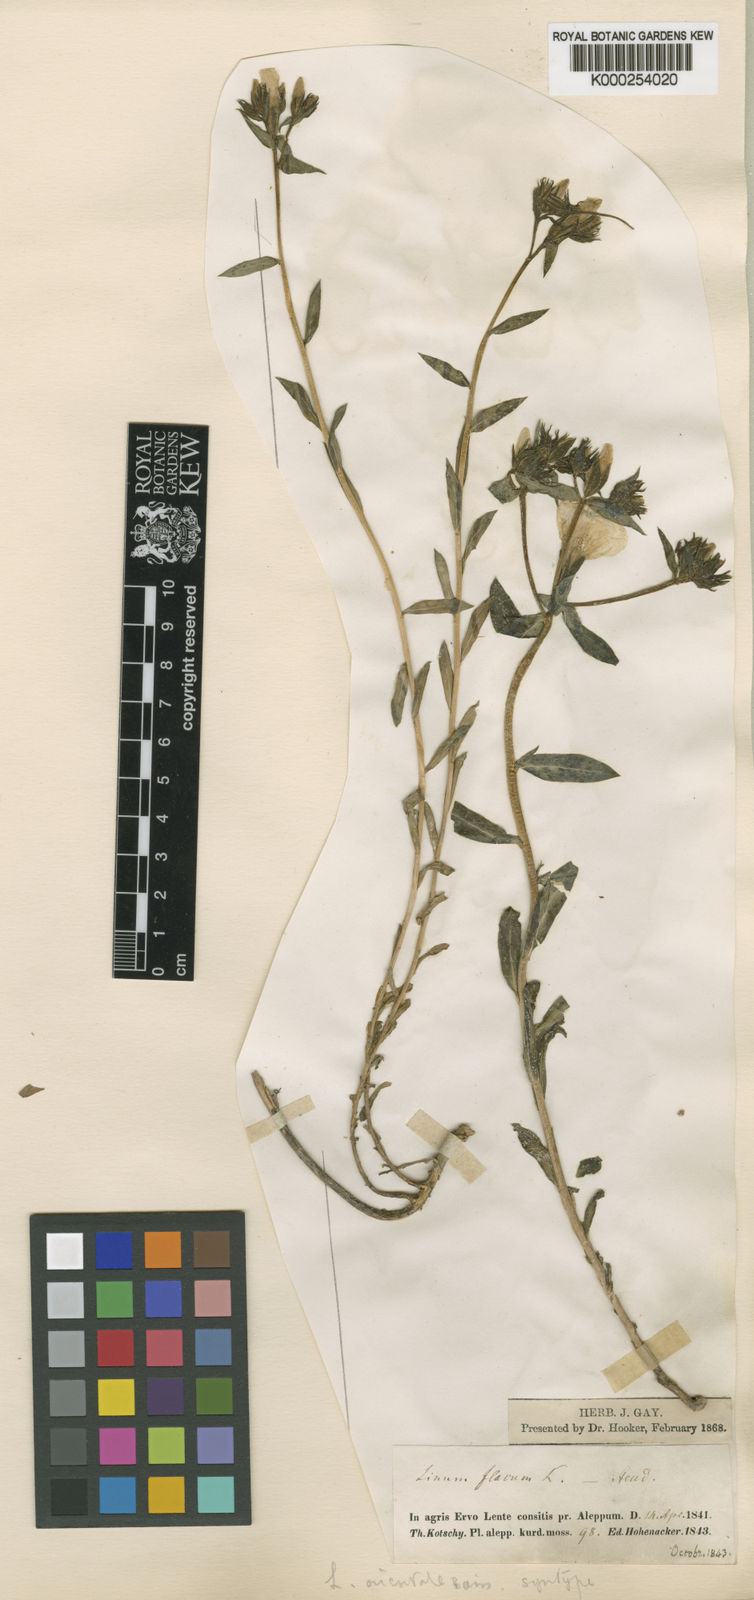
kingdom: Plantae
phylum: Tracheophyta
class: Magnoliopsida
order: Malpighiales
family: Linaceae
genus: Linum
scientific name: Linum mucronatum
